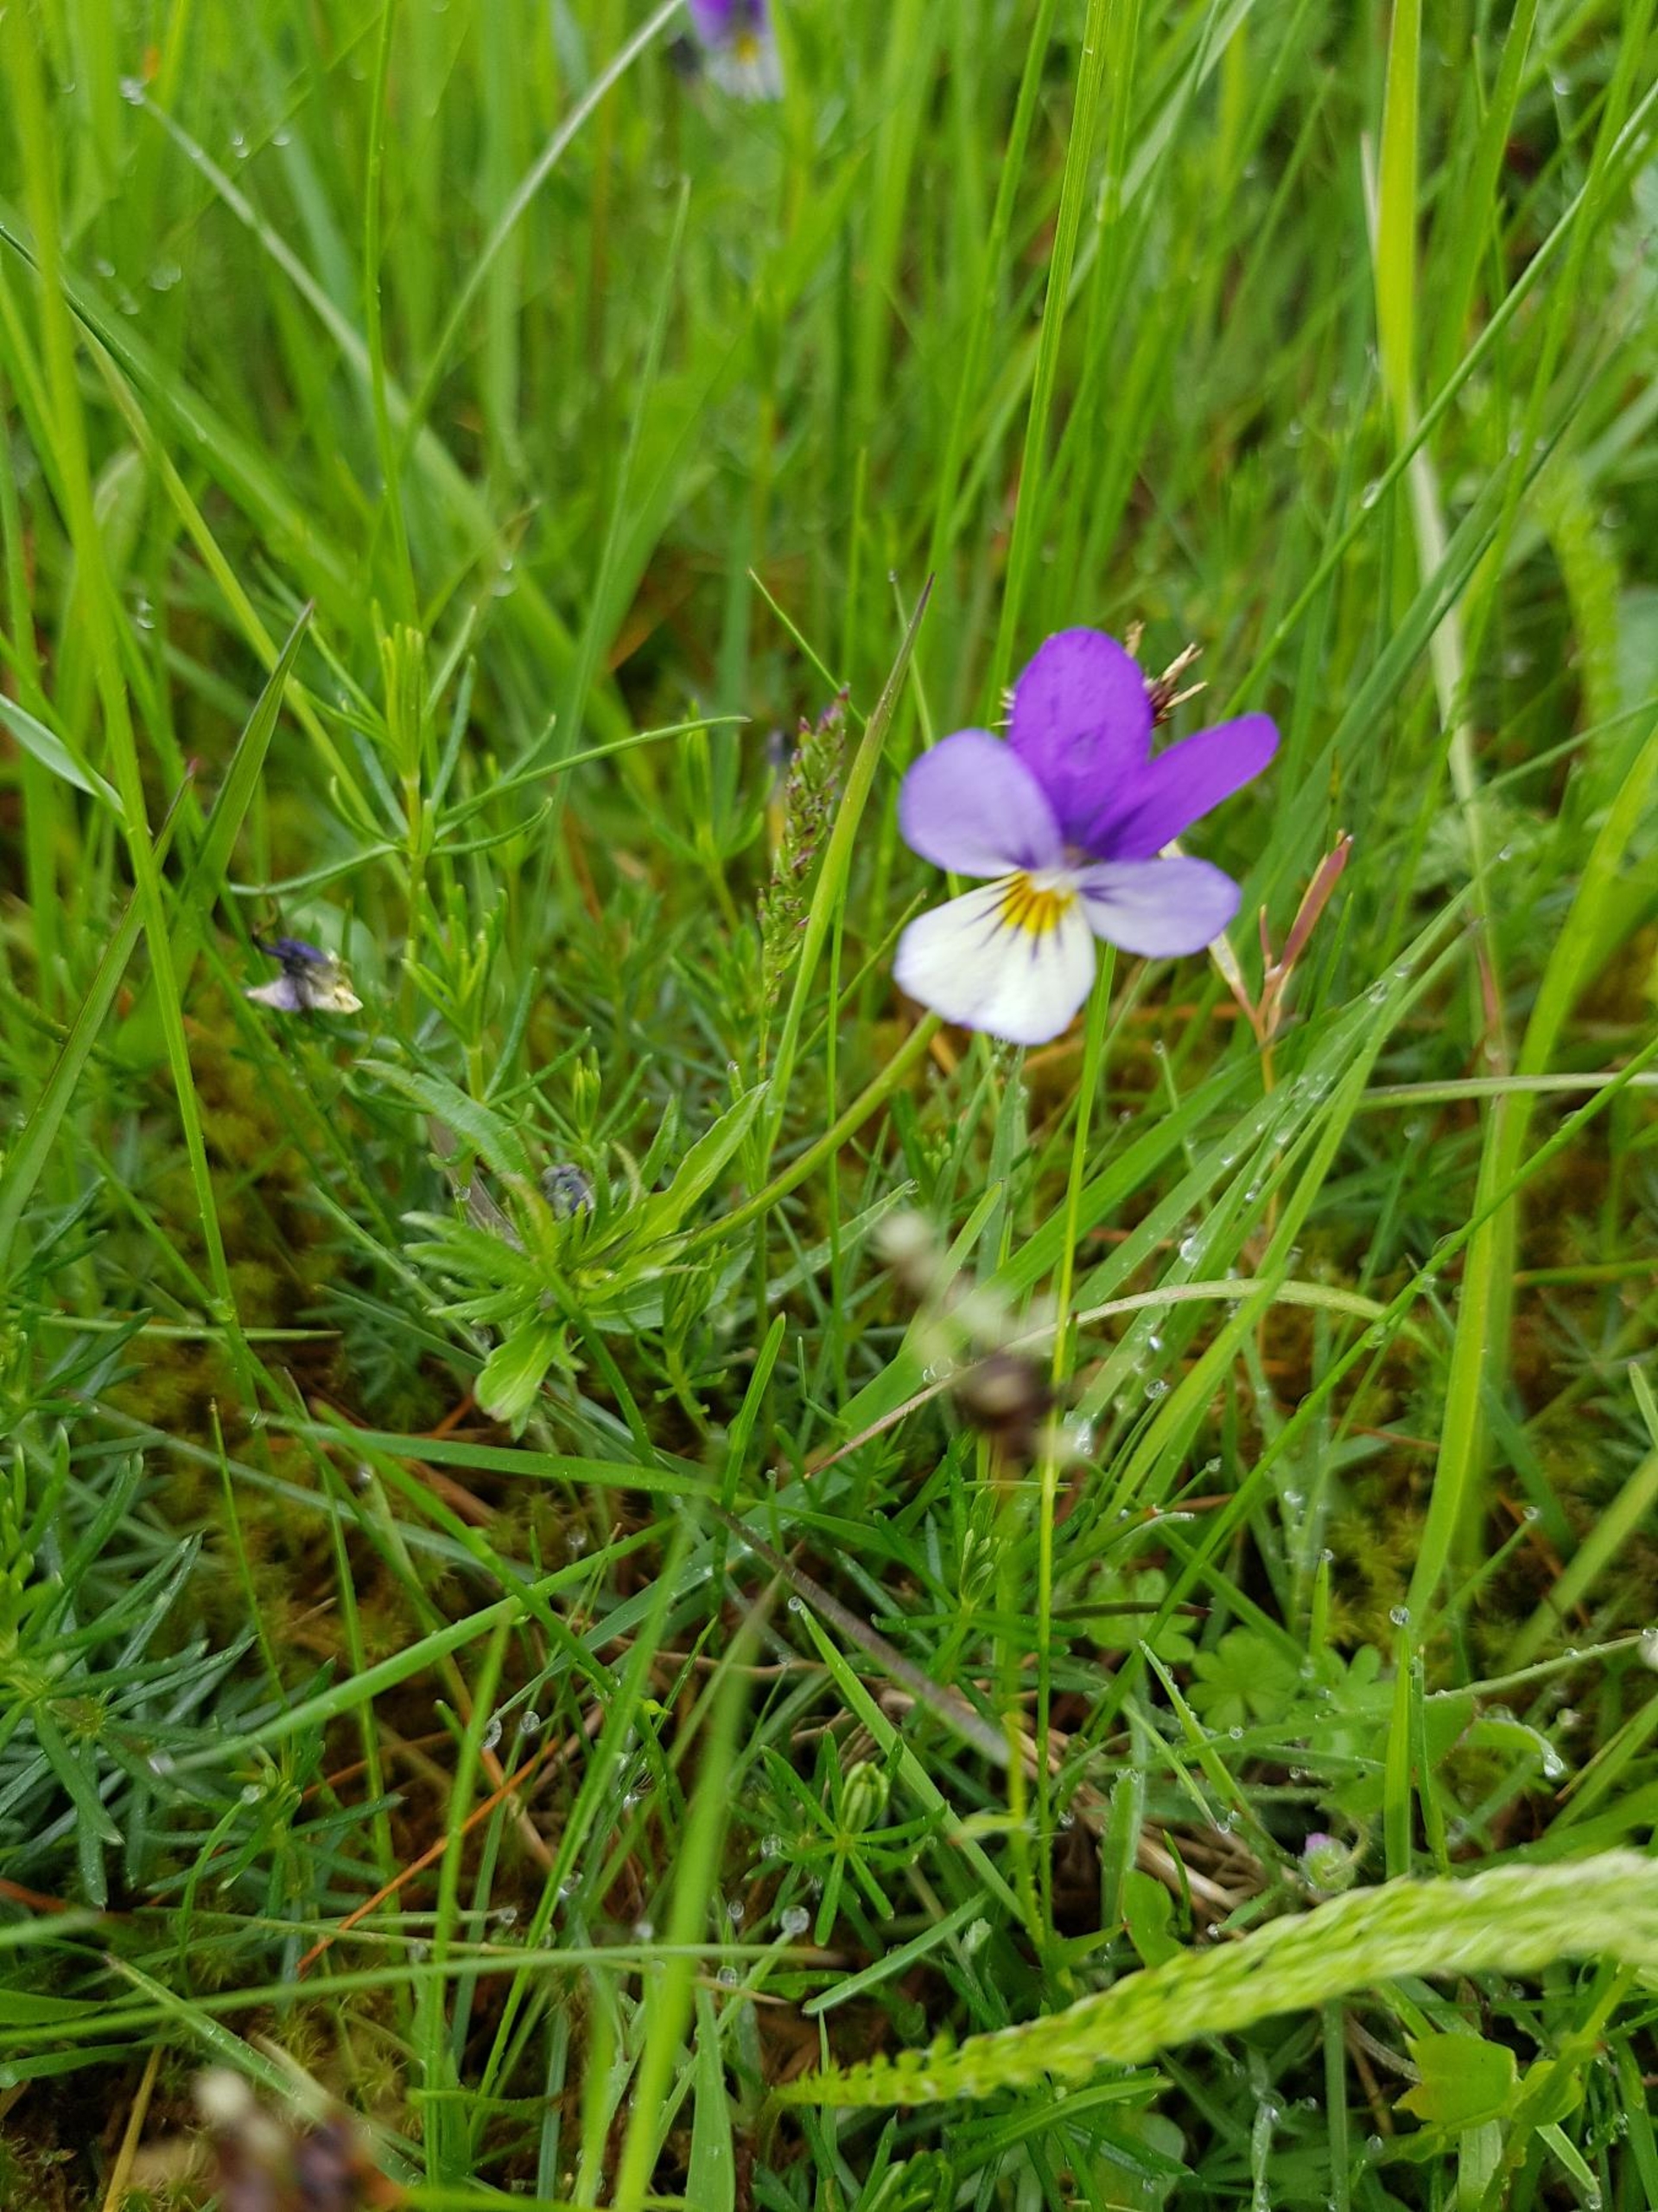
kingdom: Plantae
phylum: Tracheophyta
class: Magnoliopsida
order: Malpighiales
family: Violaceae
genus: Viola
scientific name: Viola tricolor
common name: Stedmoderblomst
